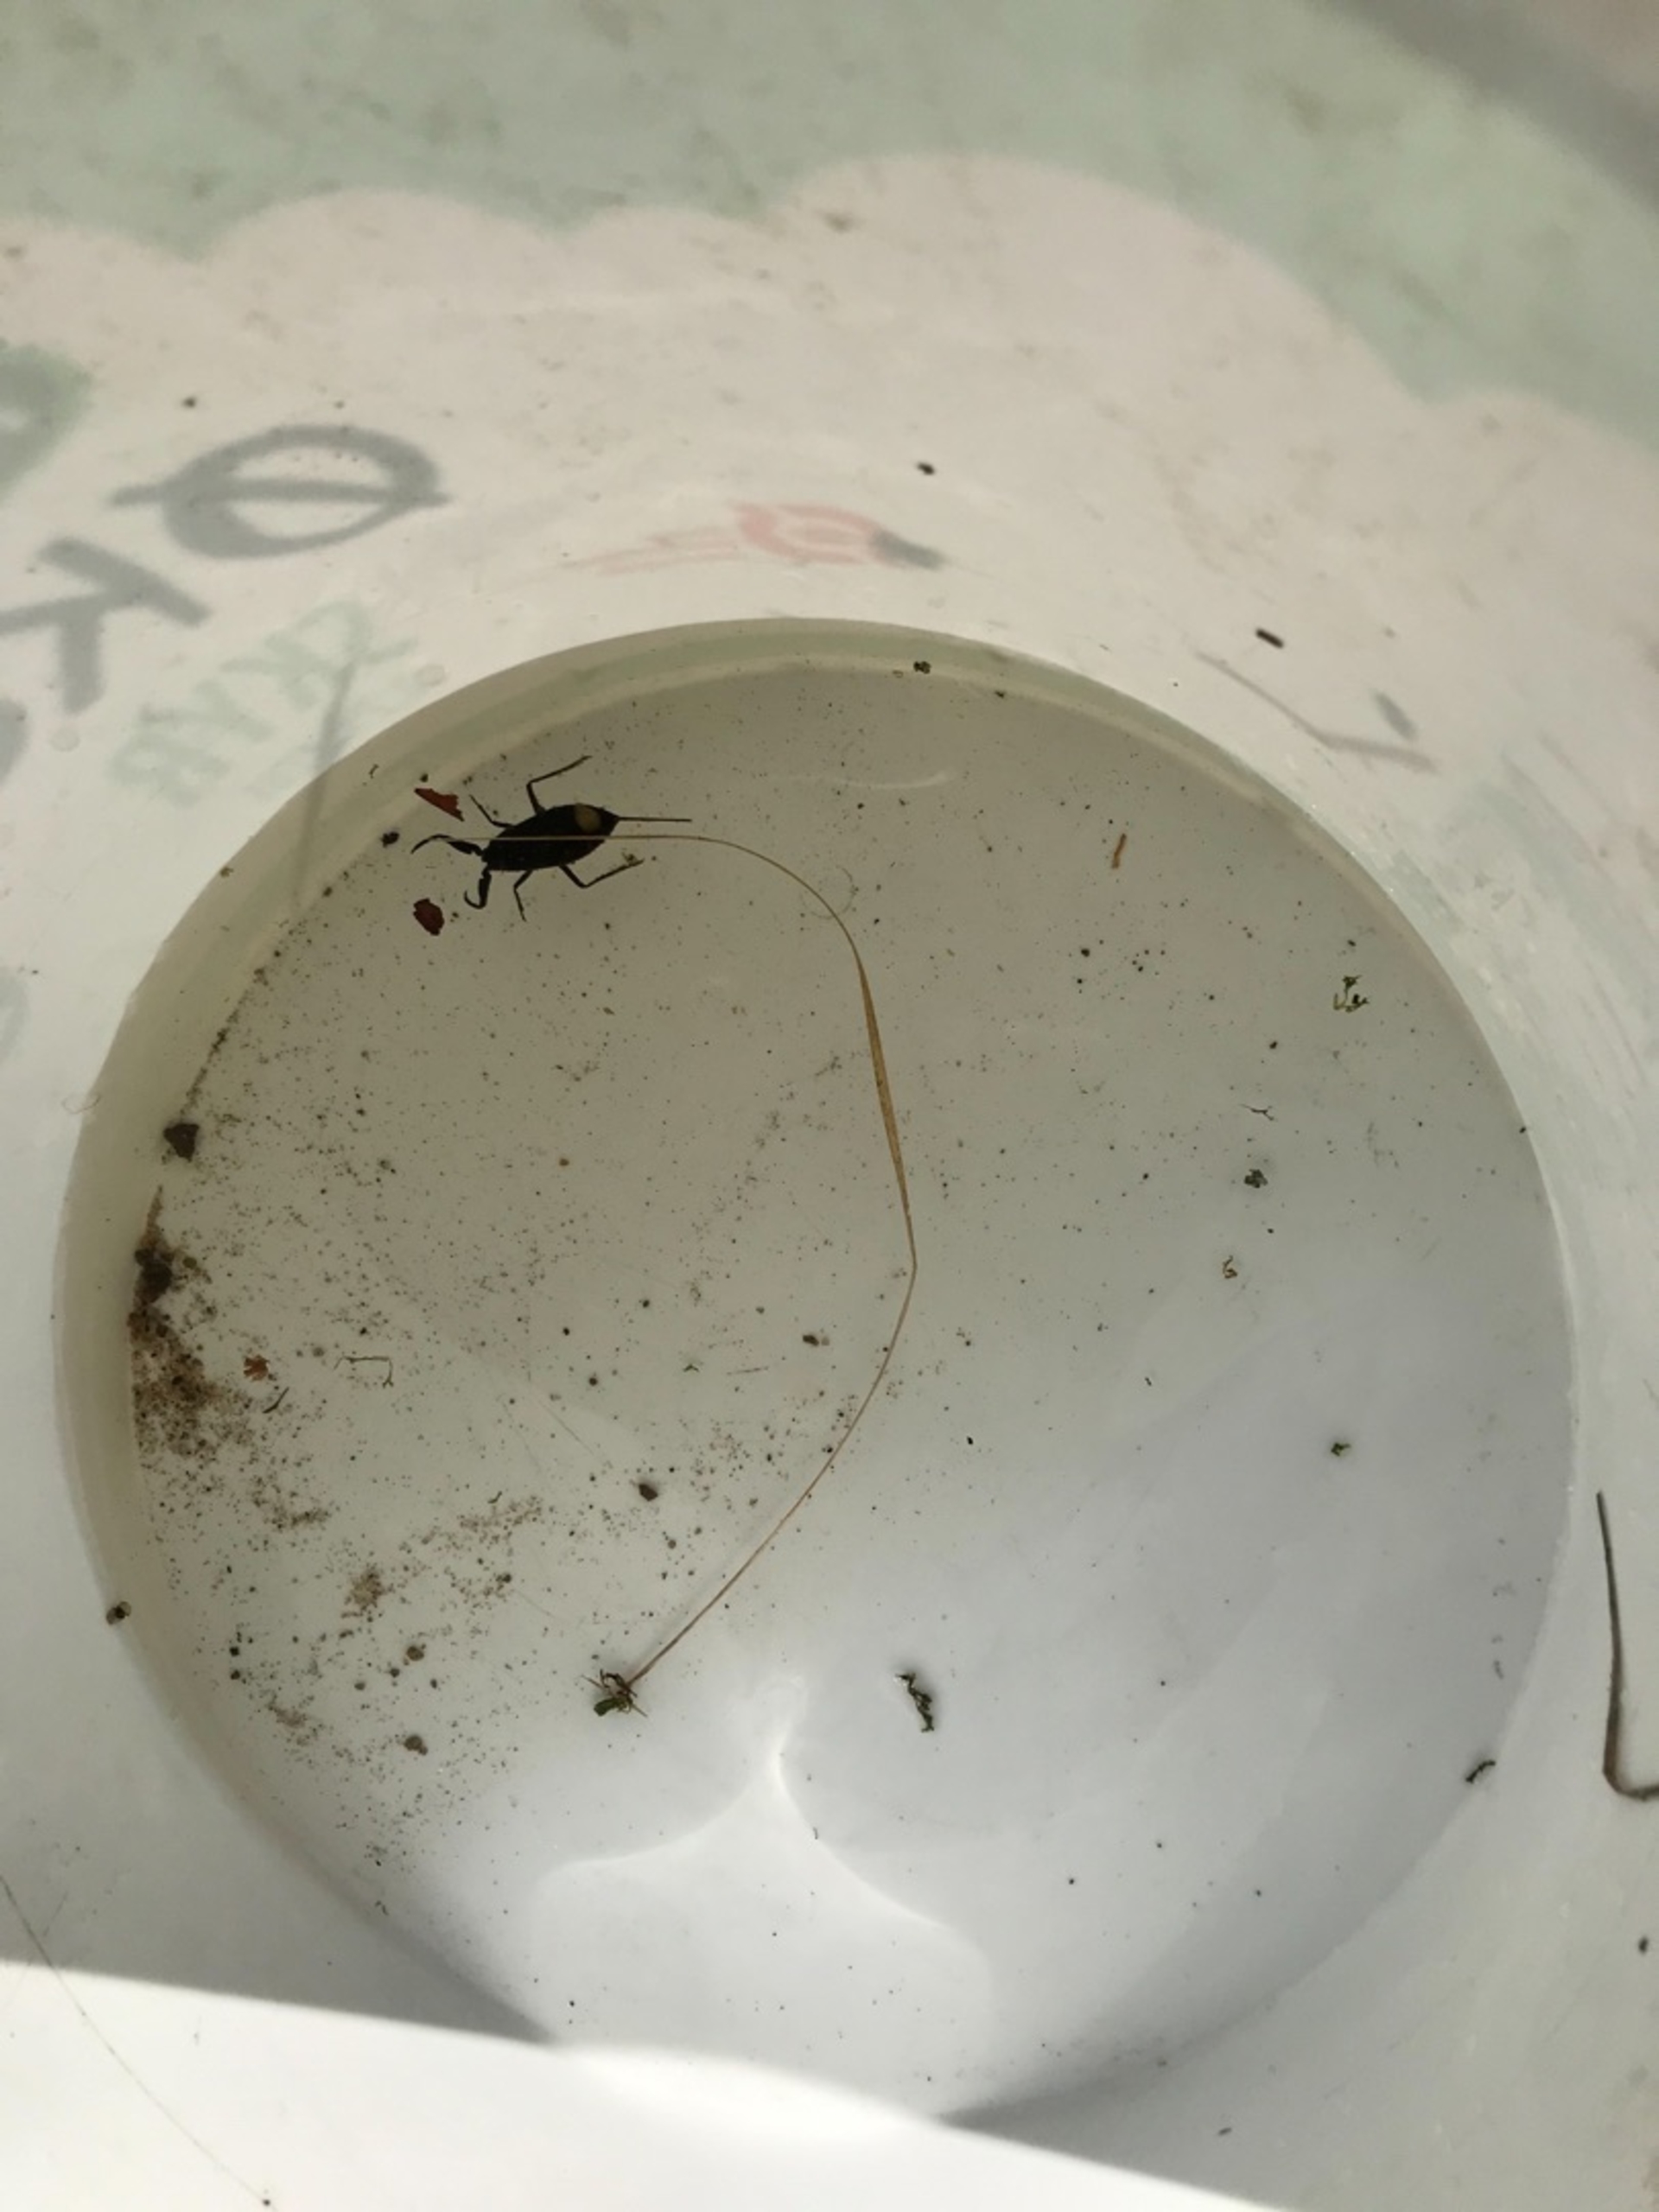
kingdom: Animalia
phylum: Arthropoda
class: Insecta
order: Hemiptera
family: Nepidae
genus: Nepa
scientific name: Nepa cinerea
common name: Skorpiontæge
